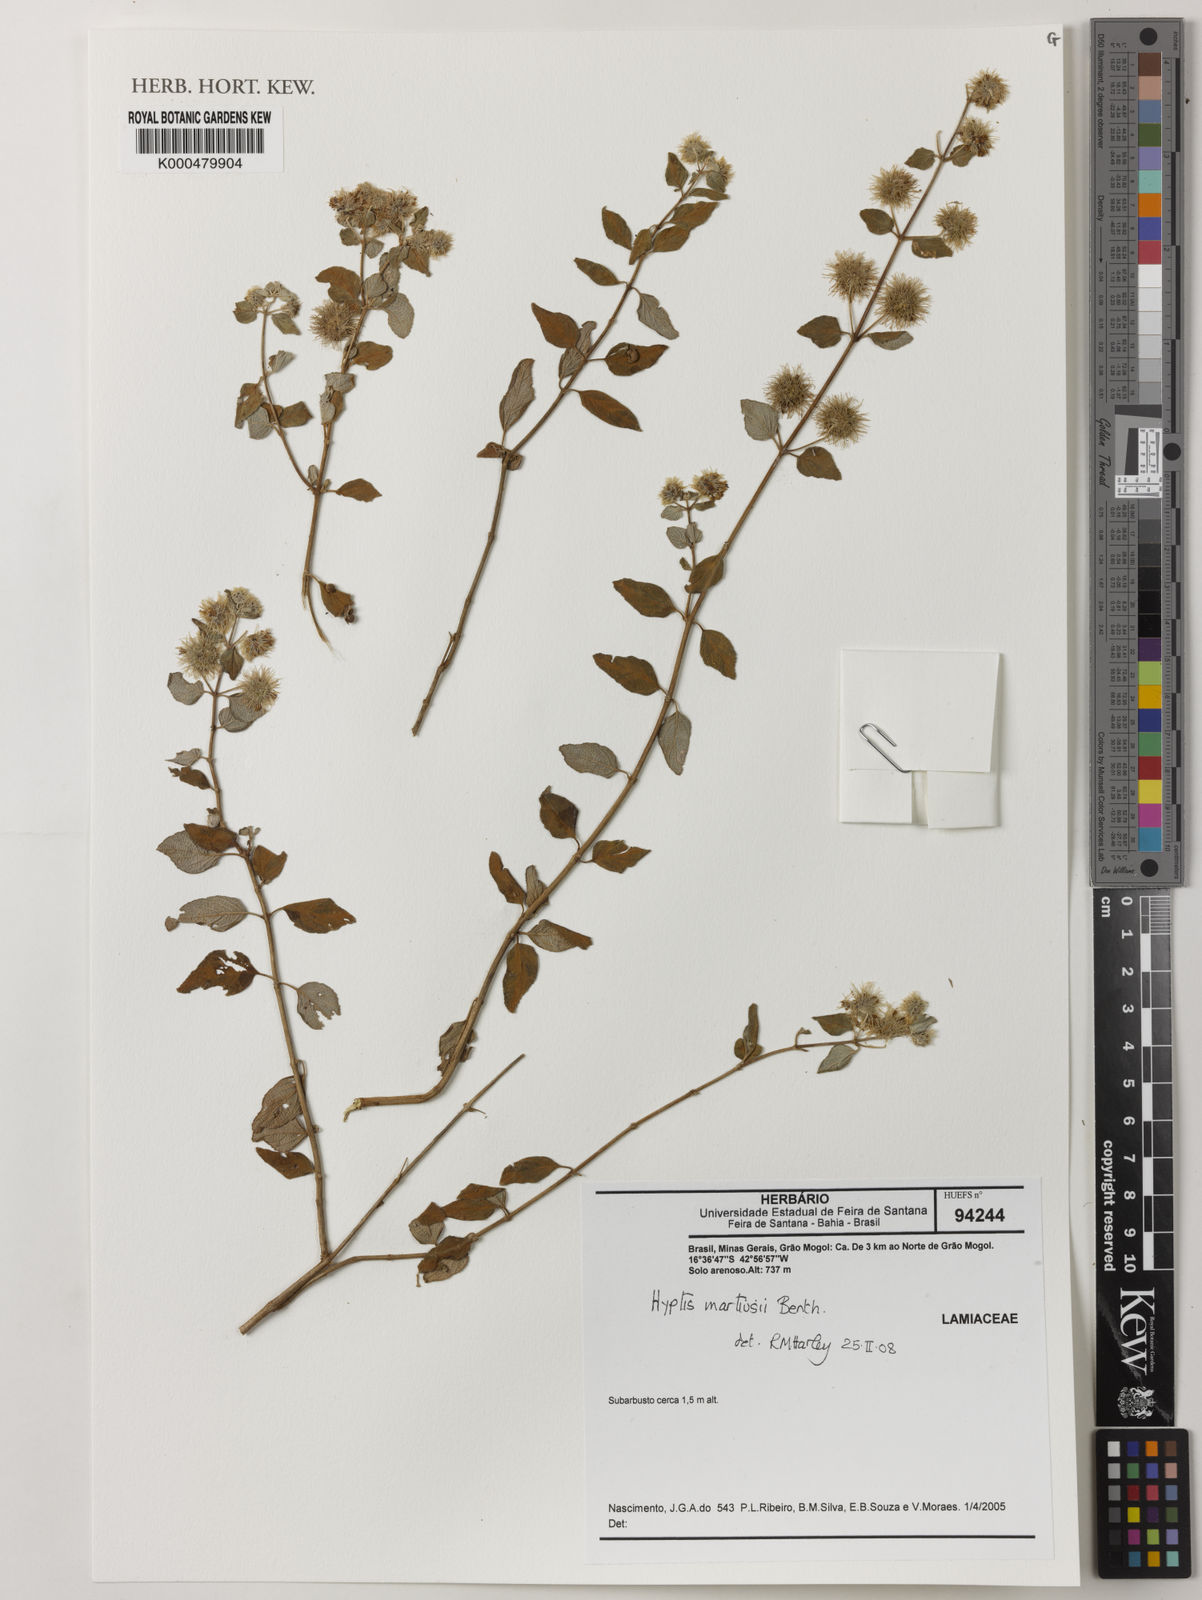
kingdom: Plantae
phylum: Tracheophyta
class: Magnoliopsida
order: Lamiales
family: Lamiaceae
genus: Medusantha
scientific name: Medusantha martiusii
